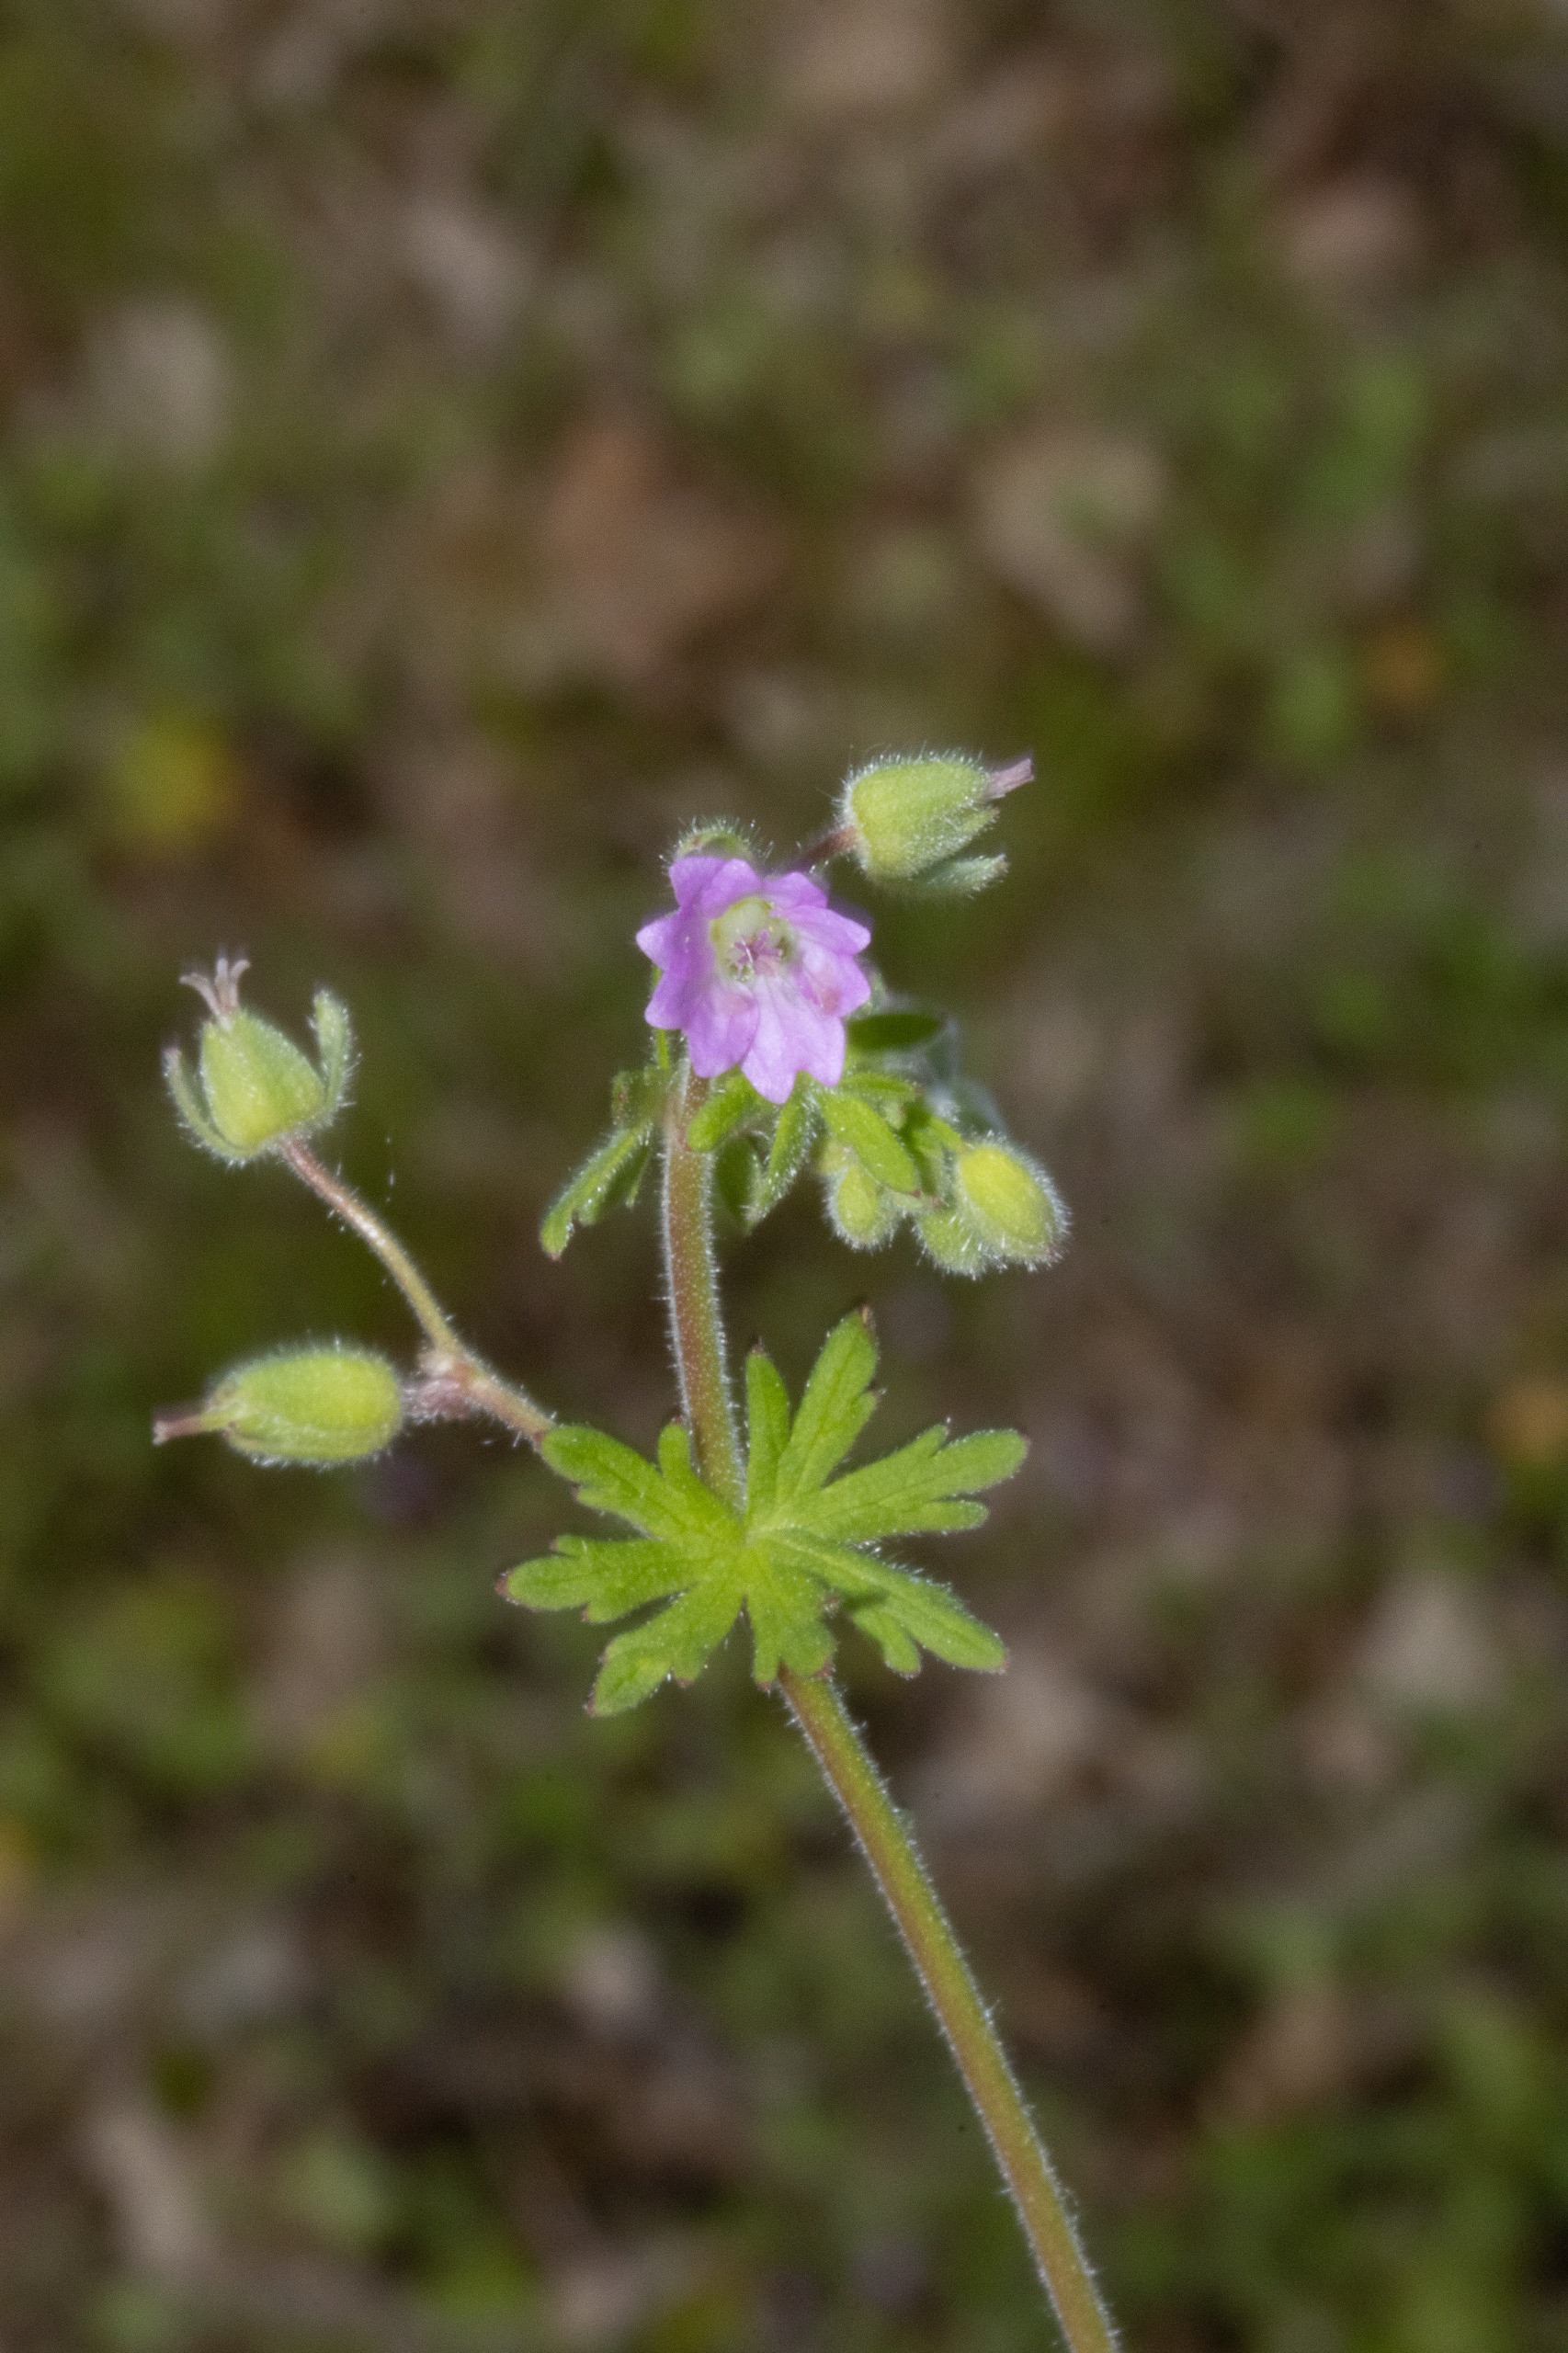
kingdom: Plantae
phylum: Tracheophyta
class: Magnoliopsida
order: Geraniales
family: Geraniaceae
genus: Geranium
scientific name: Geranium pusillum
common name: Liden storkenæb
